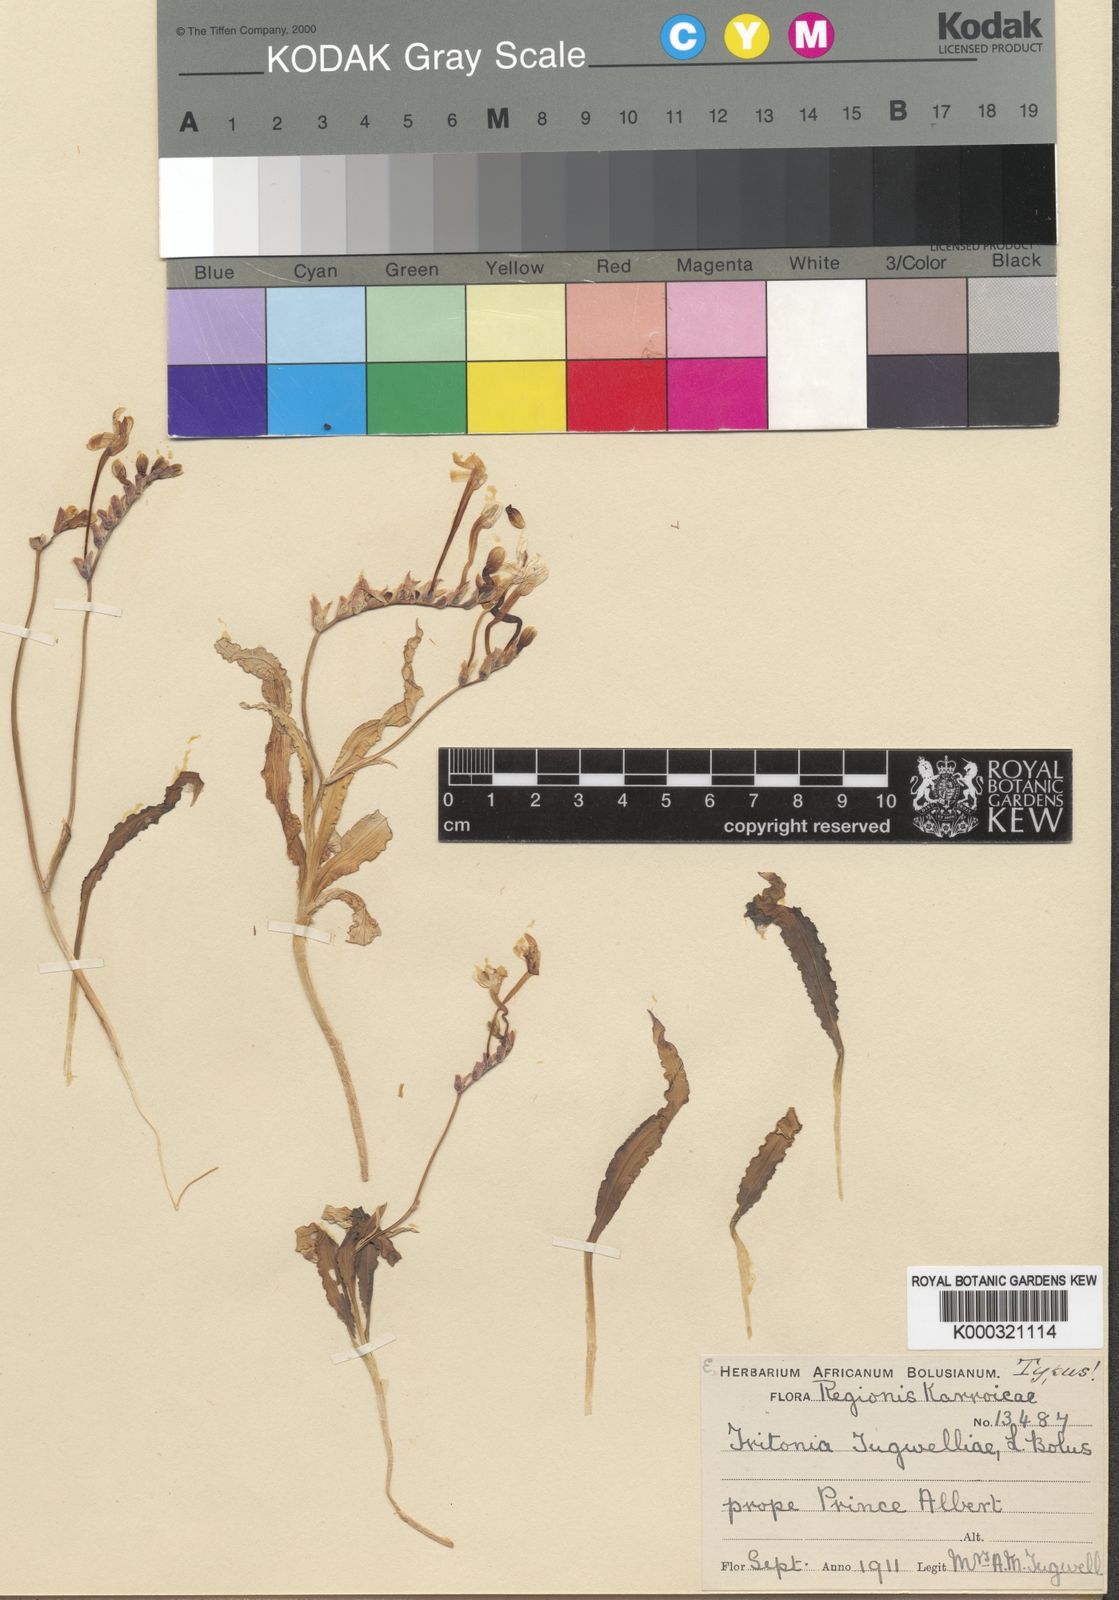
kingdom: Plantae
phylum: Tracheophyta
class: Liliopsida
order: Asparagales
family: Iridaceae
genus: Tritonia
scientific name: Tritonia tugwelliae
